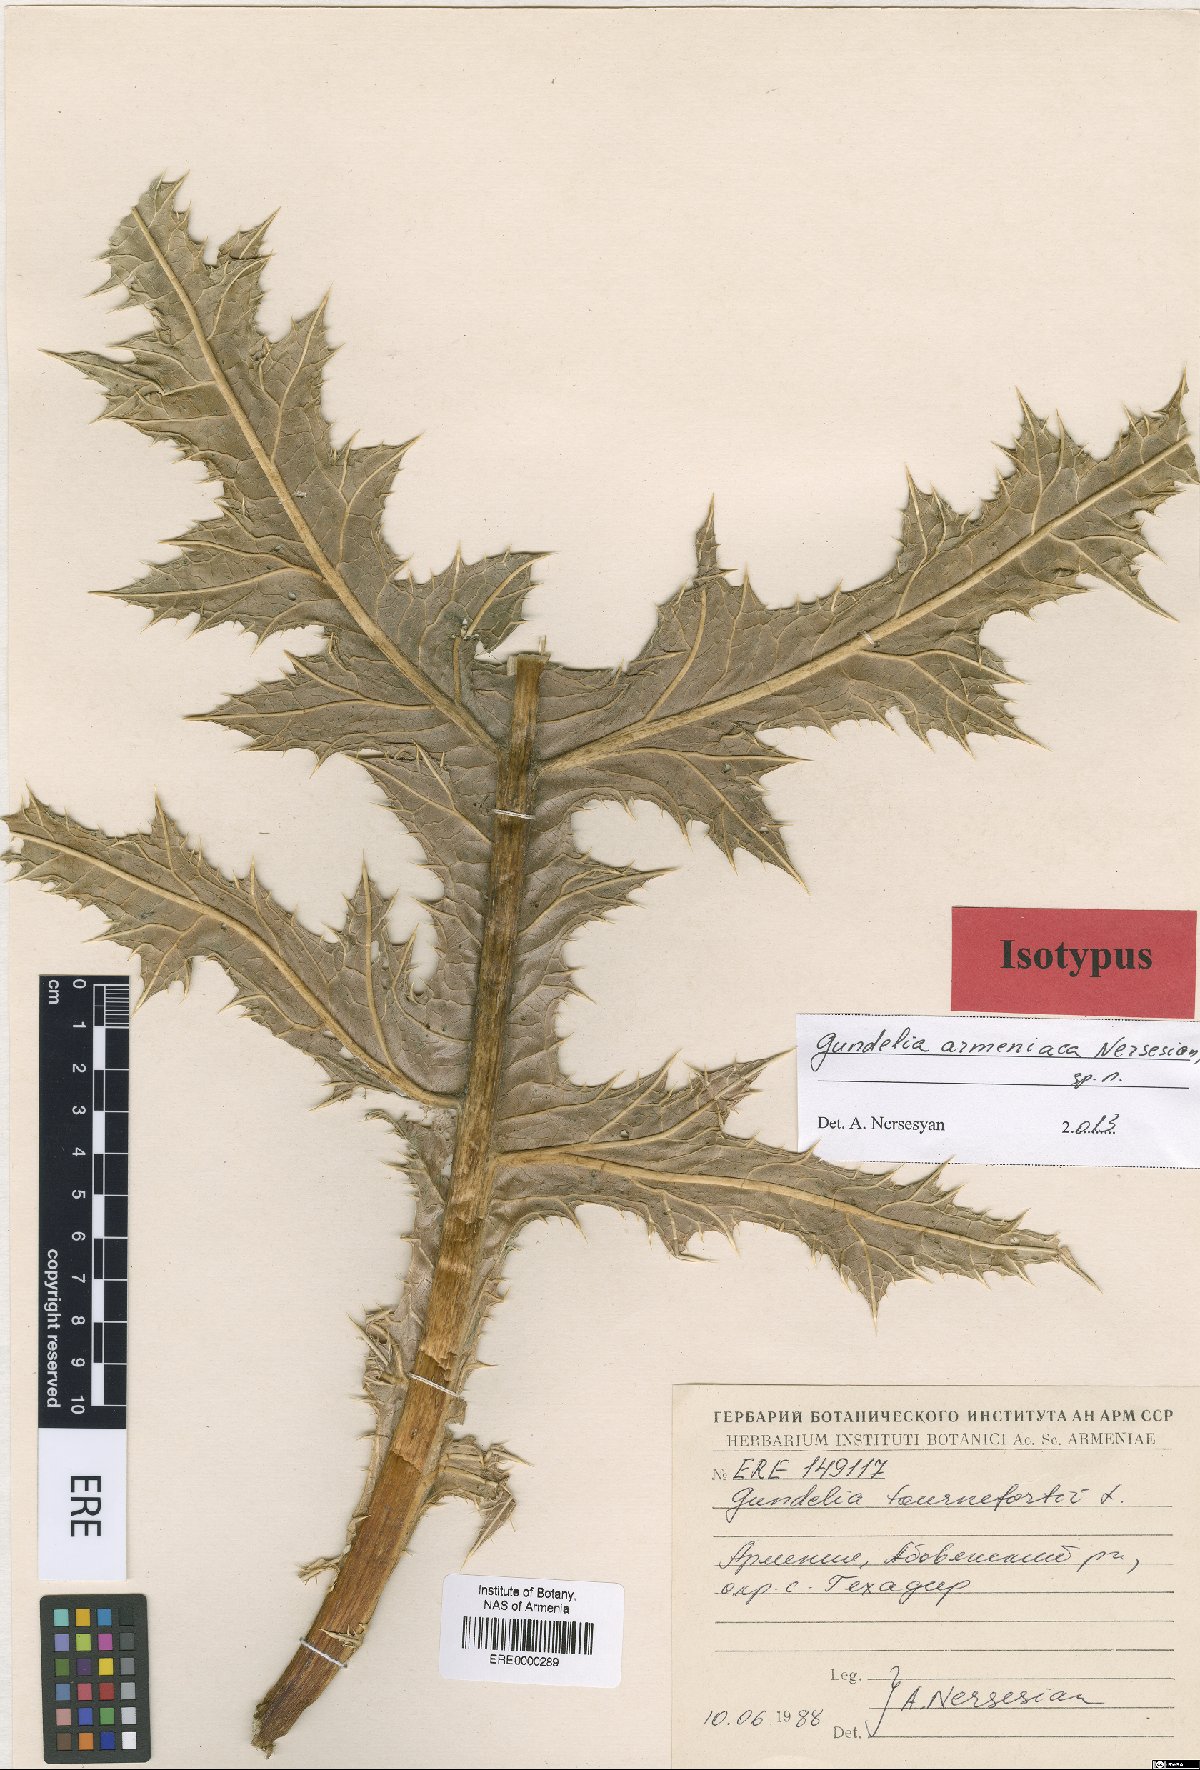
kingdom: Plantae
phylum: Tracheophyta
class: Magnoliopsida
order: Asterales
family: Asteraceae
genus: Gundelia
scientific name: Gundelia armeniaca
